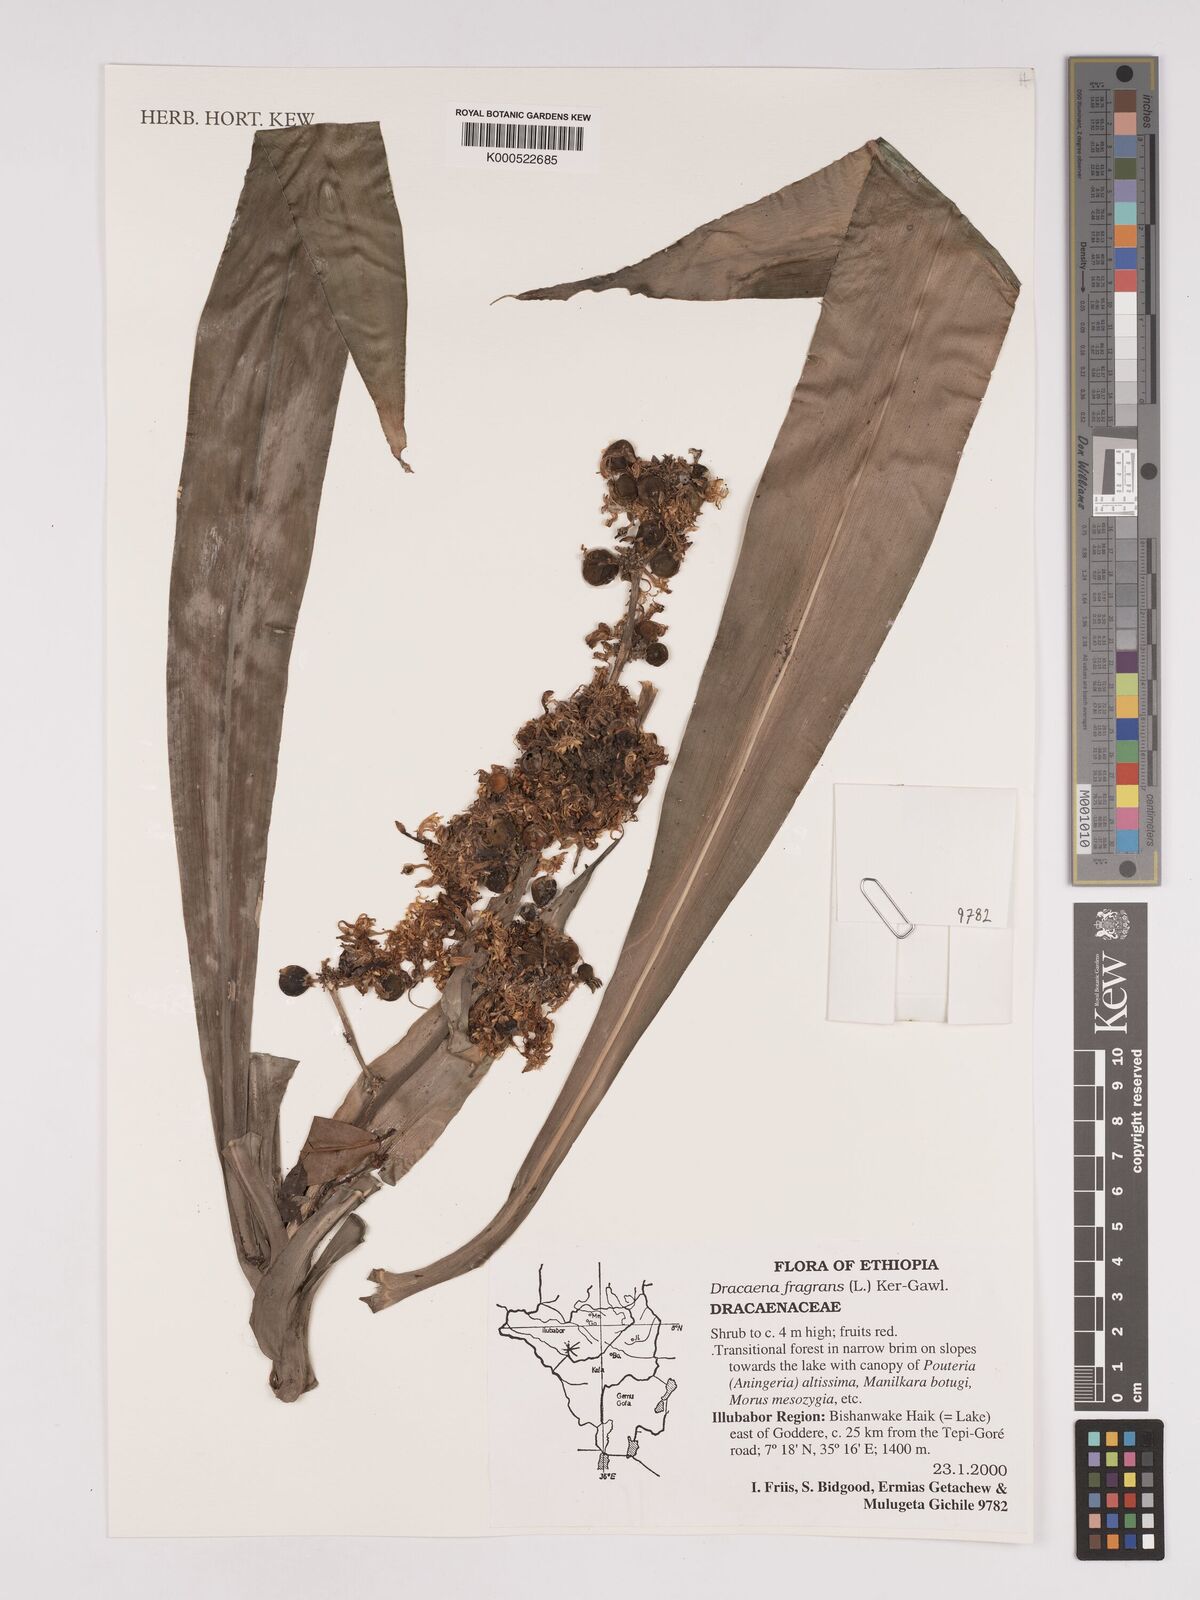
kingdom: Plantae
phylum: Tracheophyta
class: Liliopsida
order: Asparagales
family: Asparagaceae
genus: Dracaena
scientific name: Dracaena fragrans
